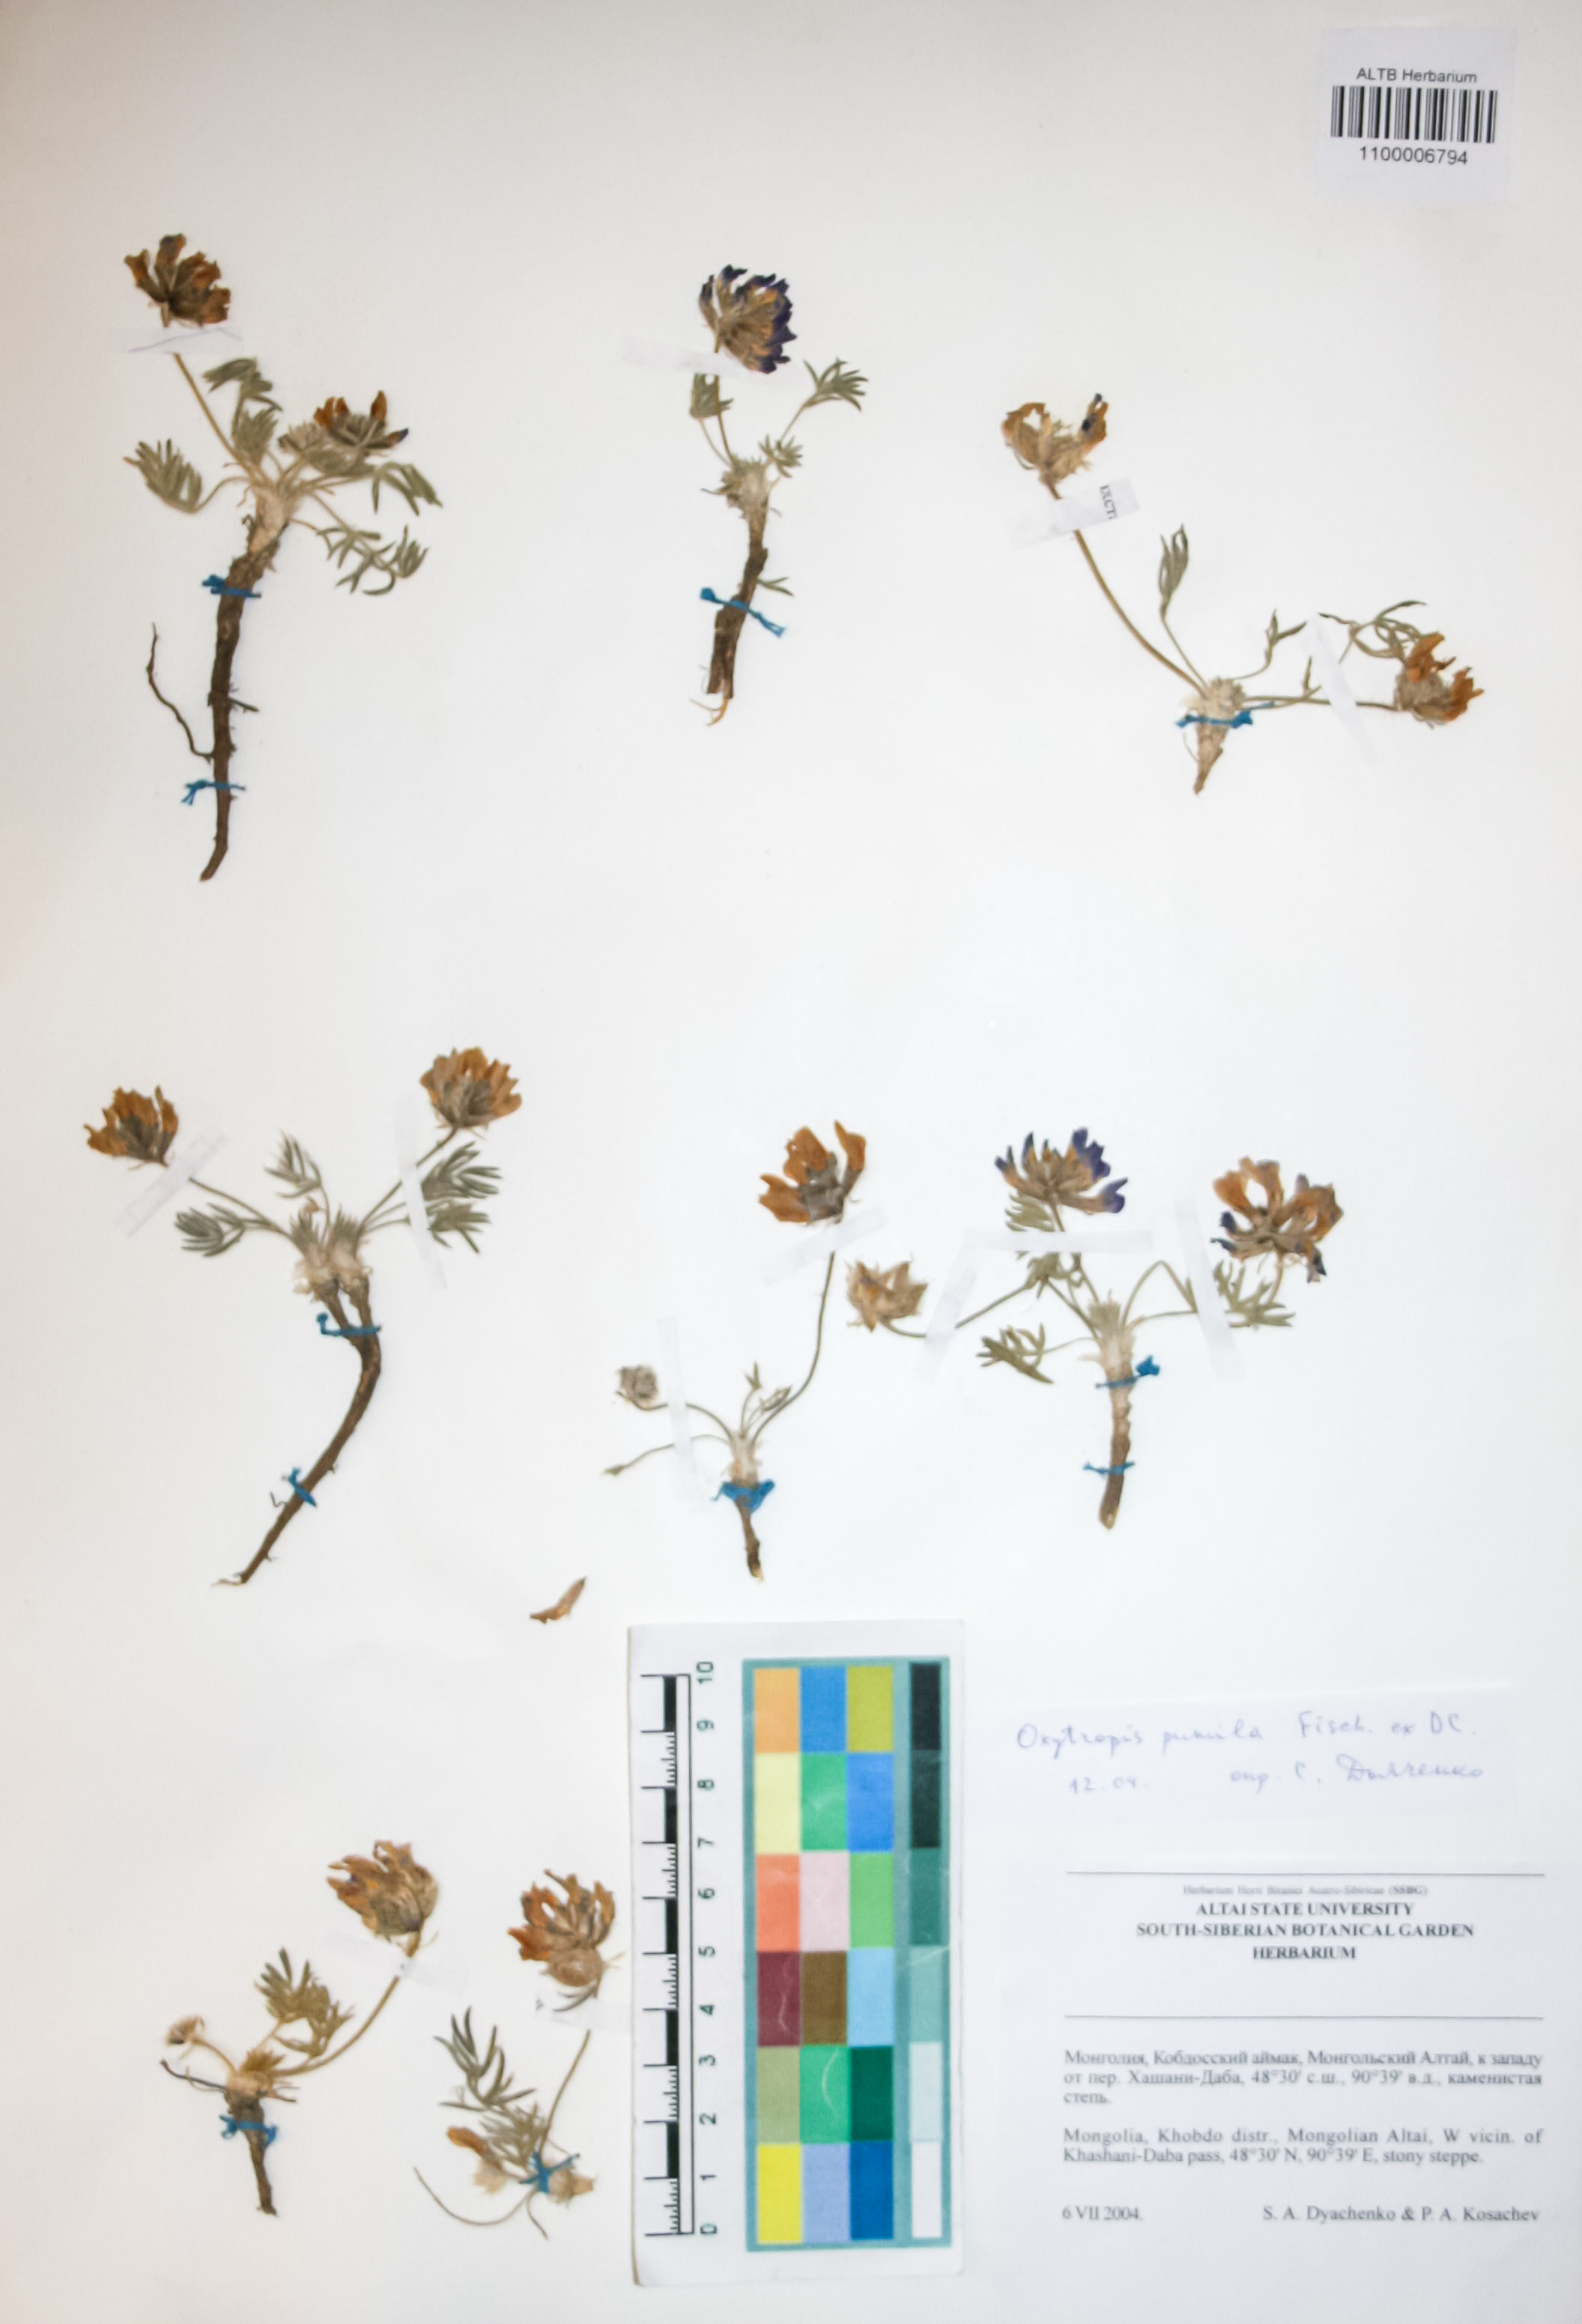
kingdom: Plantae
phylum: Tracheophyta
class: Magnoliopsida
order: Fabales
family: Fabaceae
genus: Oxytropis
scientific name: Oxytropis pumila
